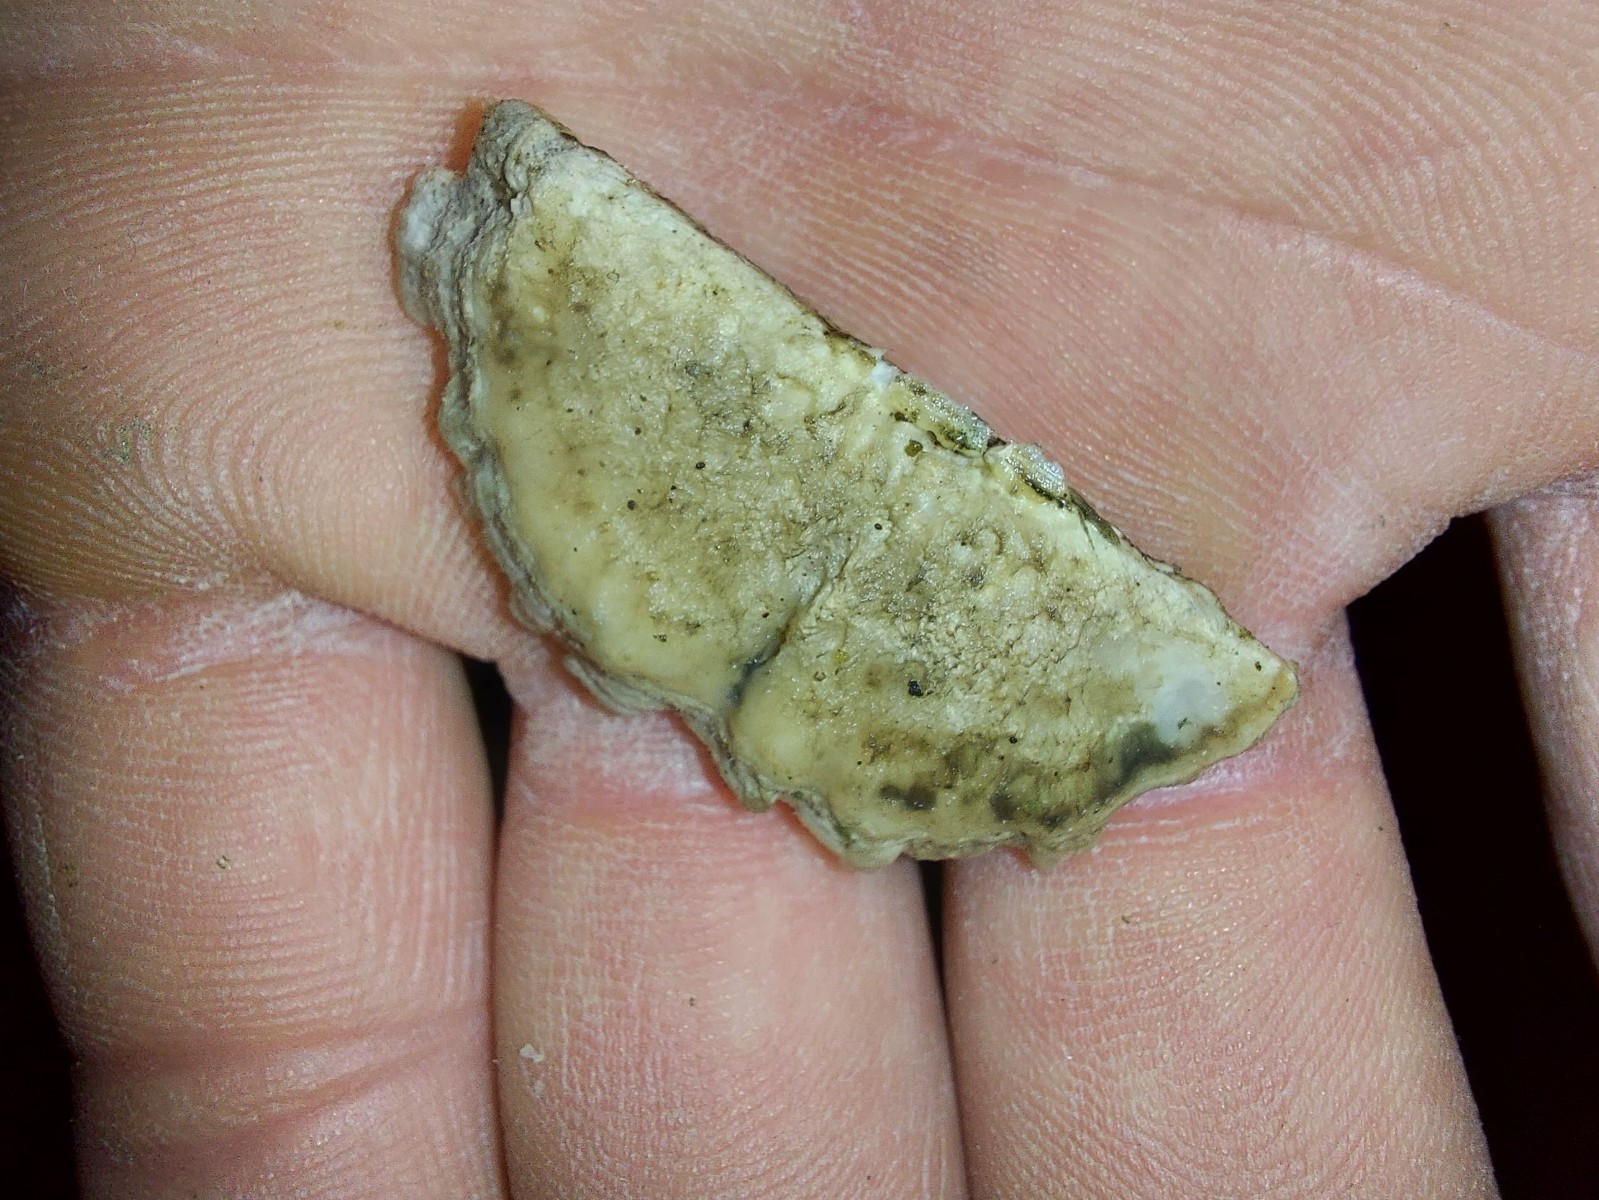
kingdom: Fungi
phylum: Basidiomycota
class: Agaricomycetes
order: Polyporales
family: Polyporaceae
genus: Trichaptum
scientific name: Trichaptum
